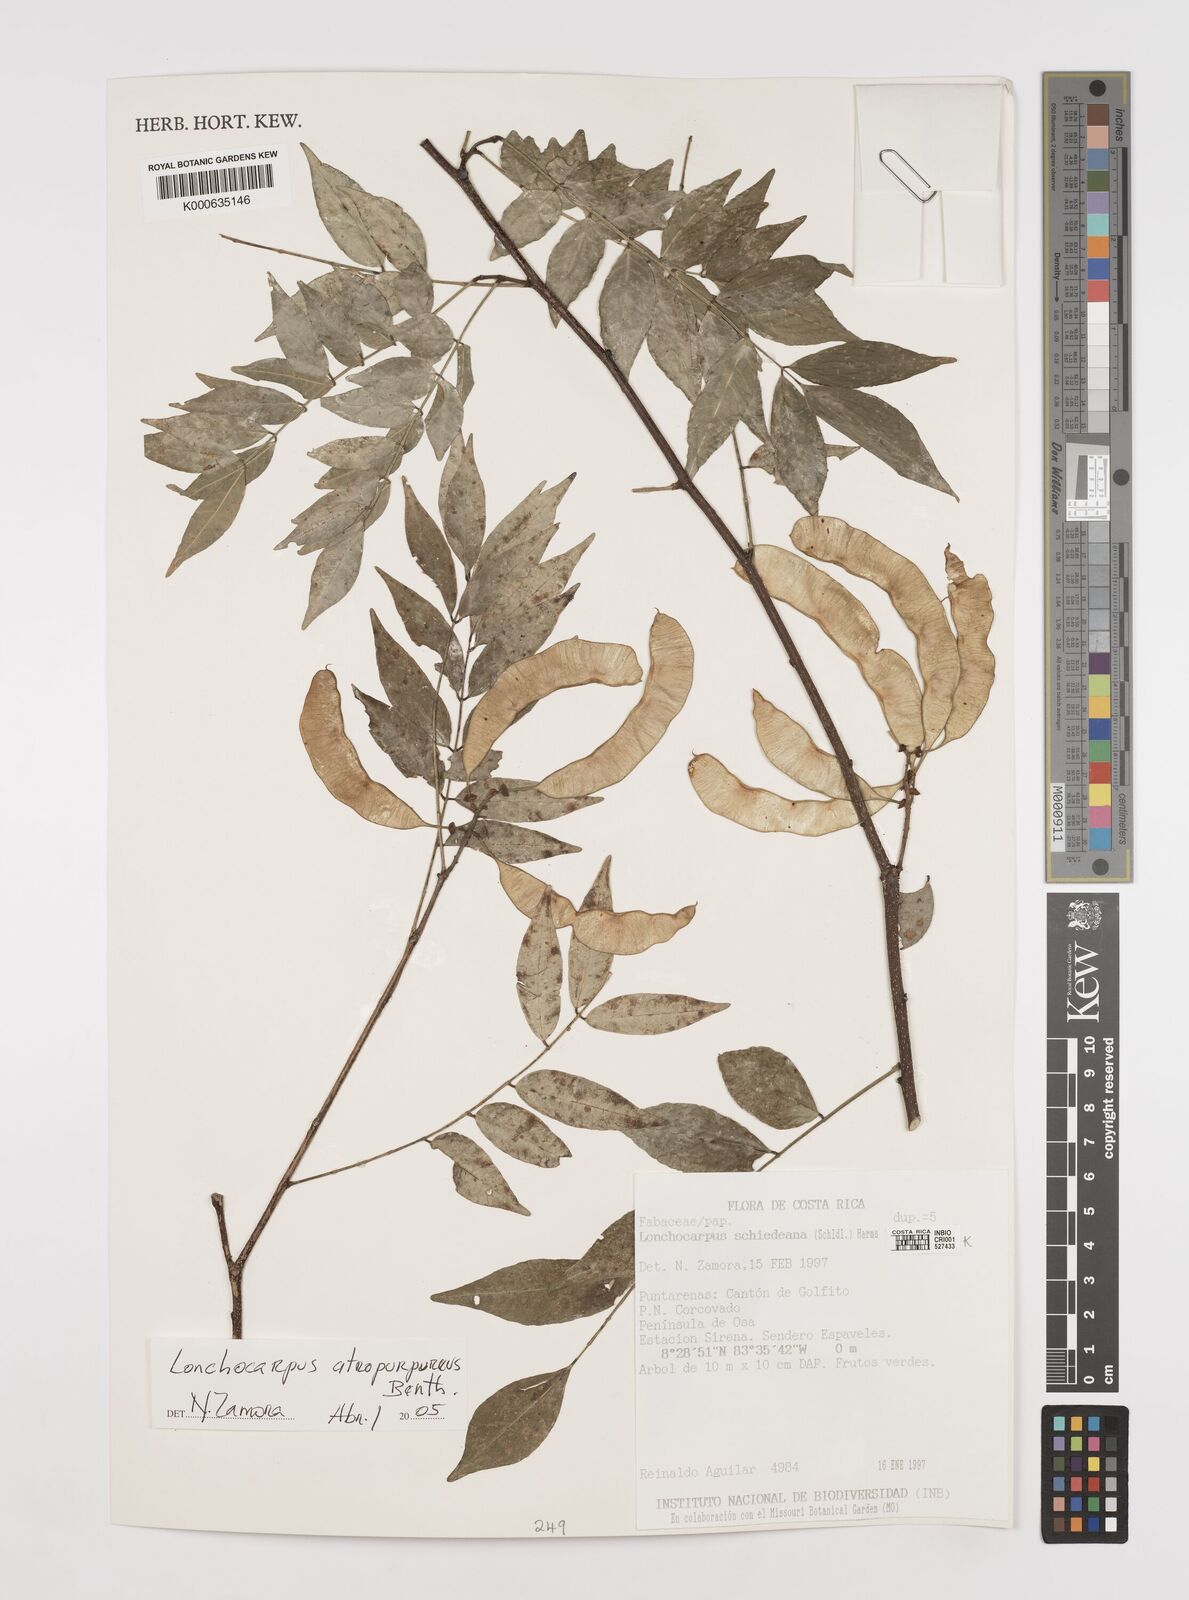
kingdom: Plantae
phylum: Tracheophyta
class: Magnoliopsida
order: Fabales
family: Fabaceae
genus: Lonchocarpus
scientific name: Lonchocarpus atropurpureus
